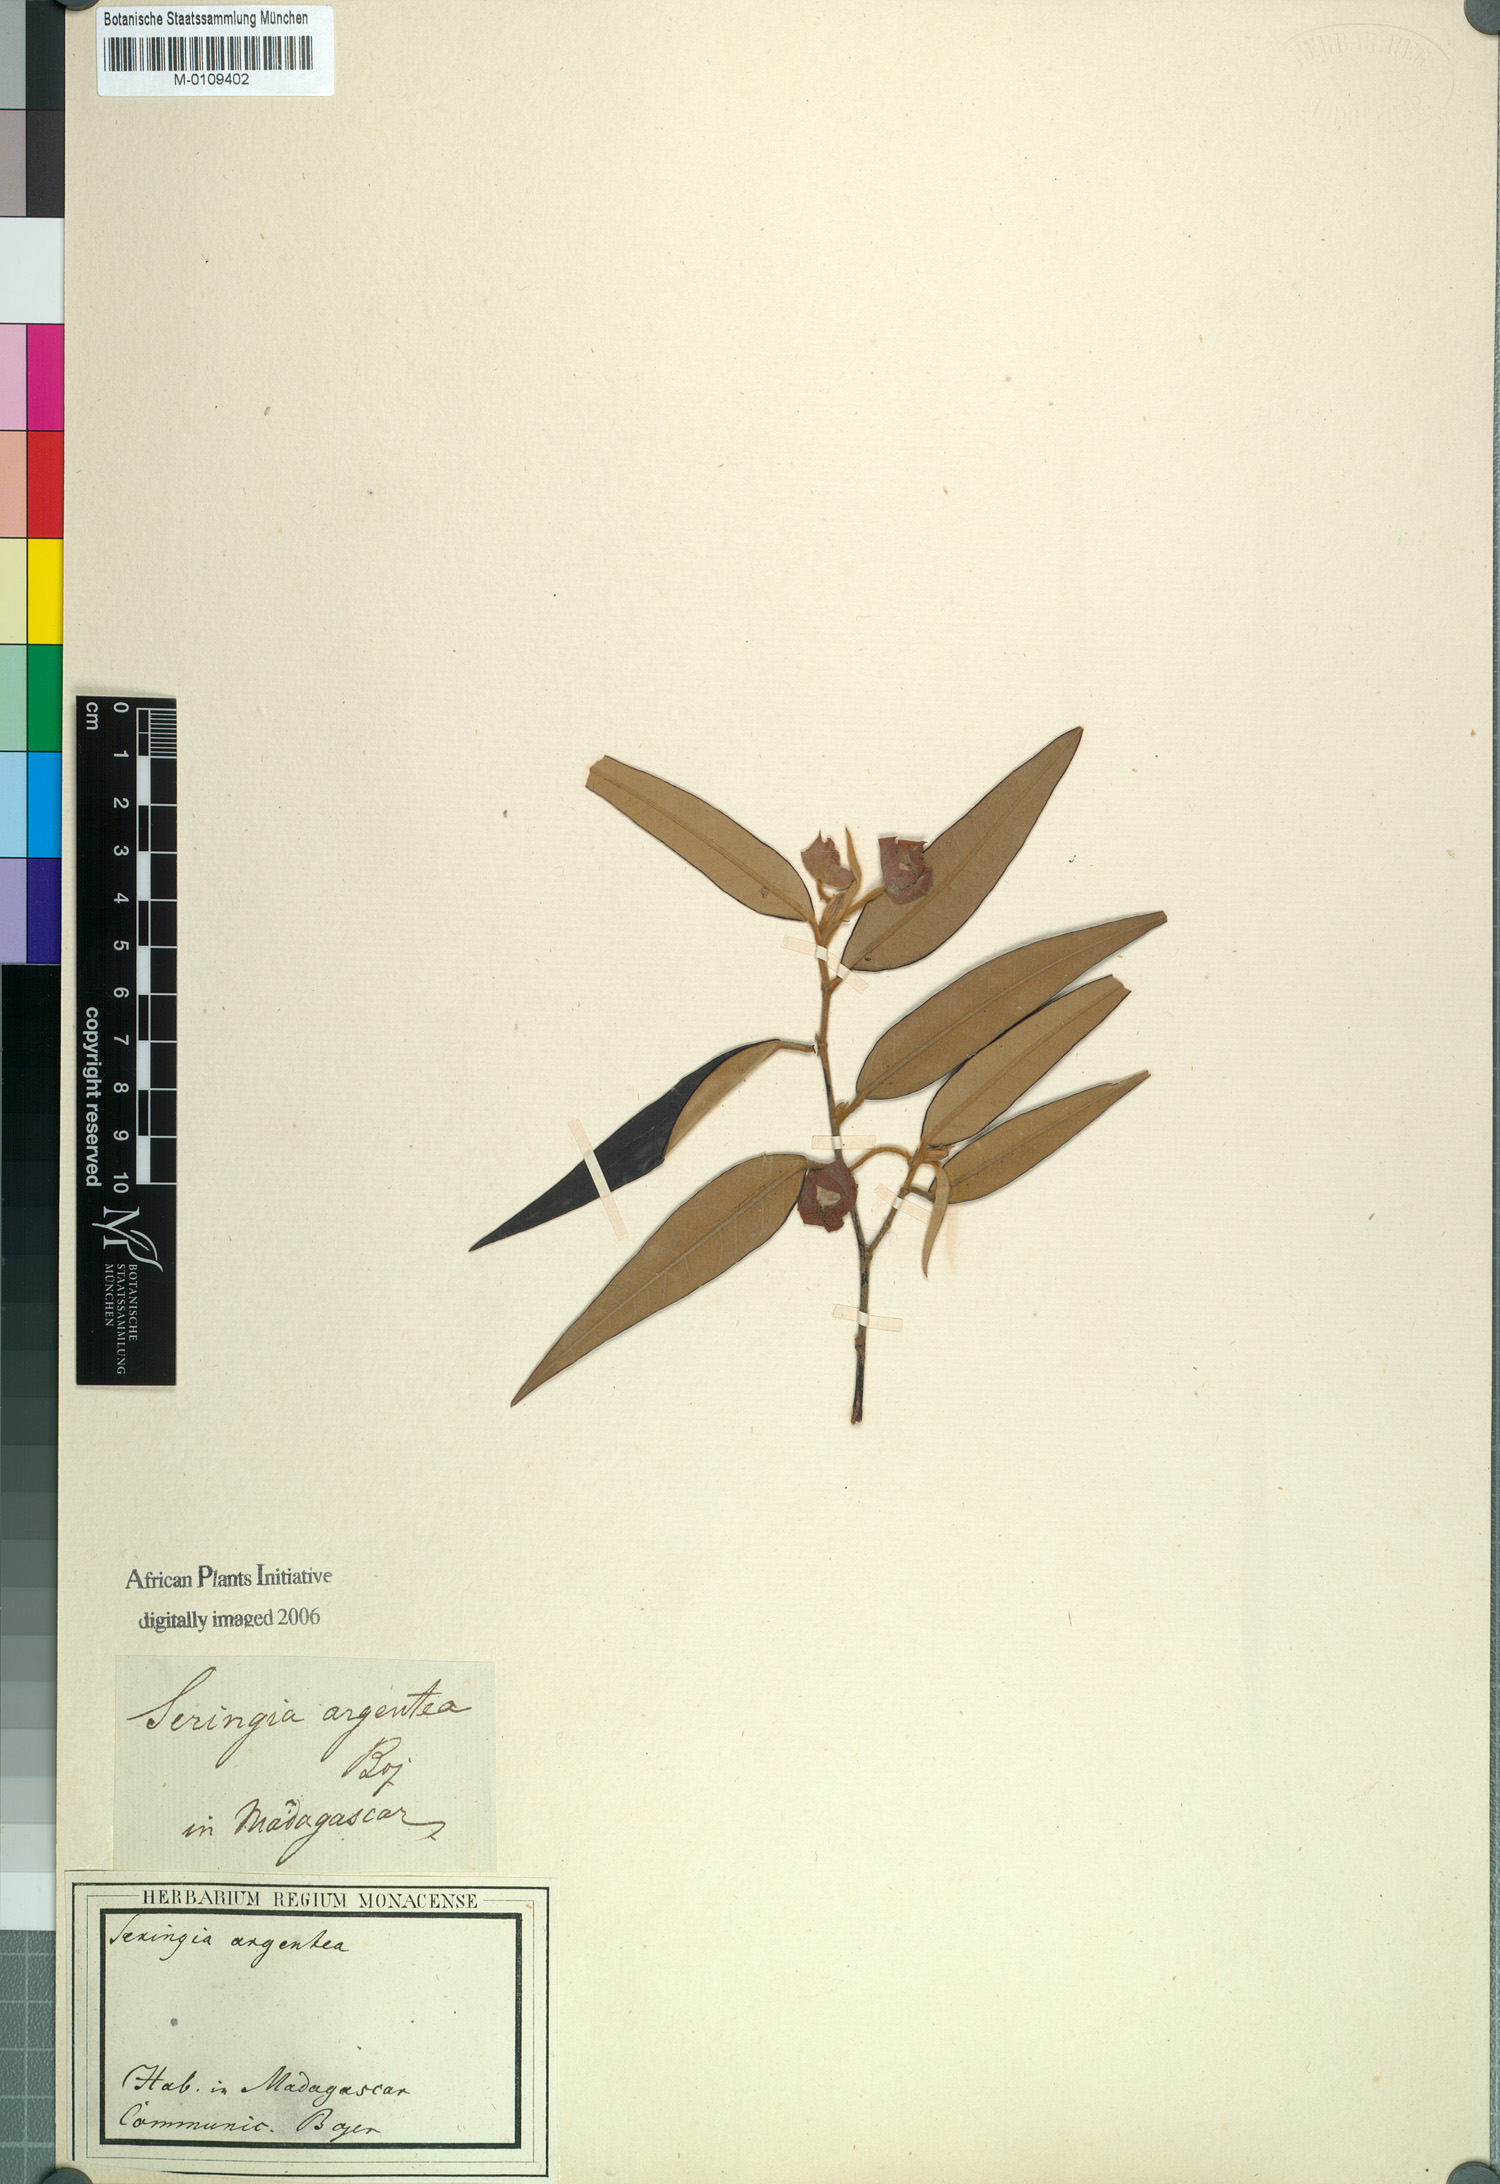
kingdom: Plantae
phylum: Tracheophyta
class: Magnoliopsida
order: Malvales
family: Malvaceae
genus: Seringia
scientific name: Seringia
